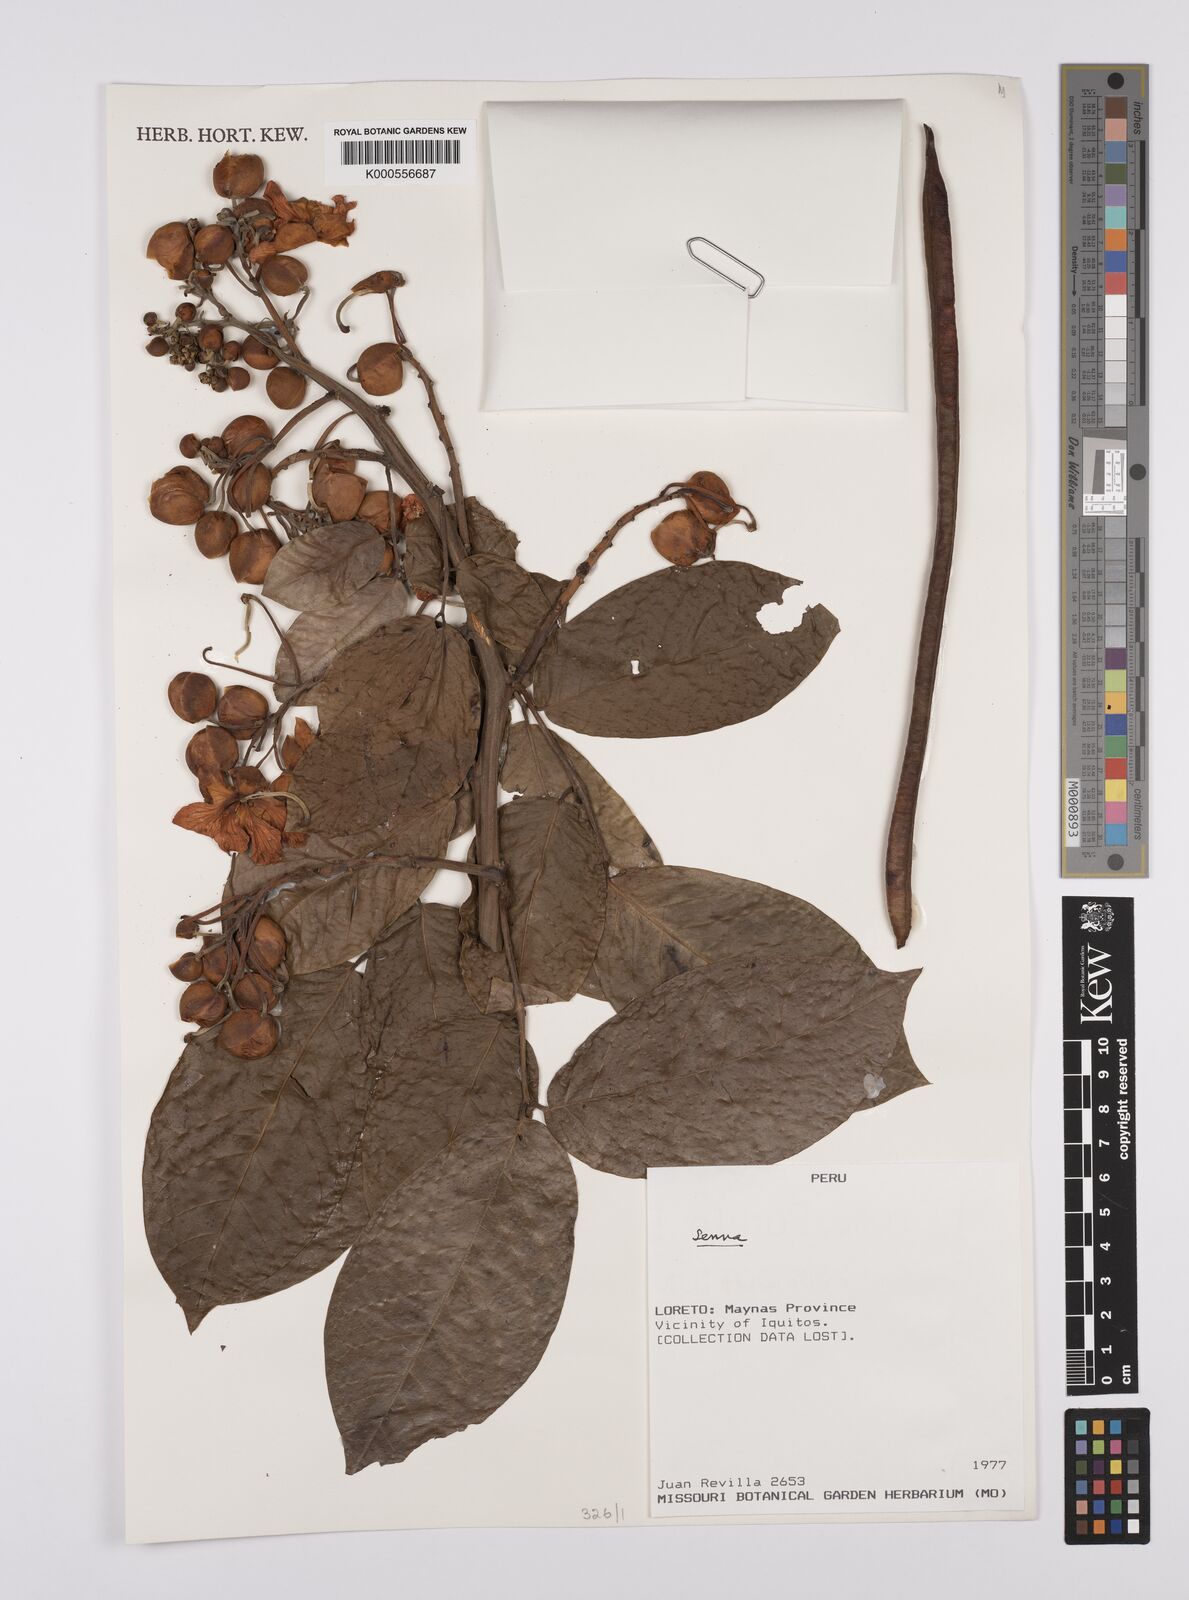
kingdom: Plantae
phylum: Tracheophyta
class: Magnoliopsida
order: Fabales
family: Fabaceae
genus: Senna
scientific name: Senna
